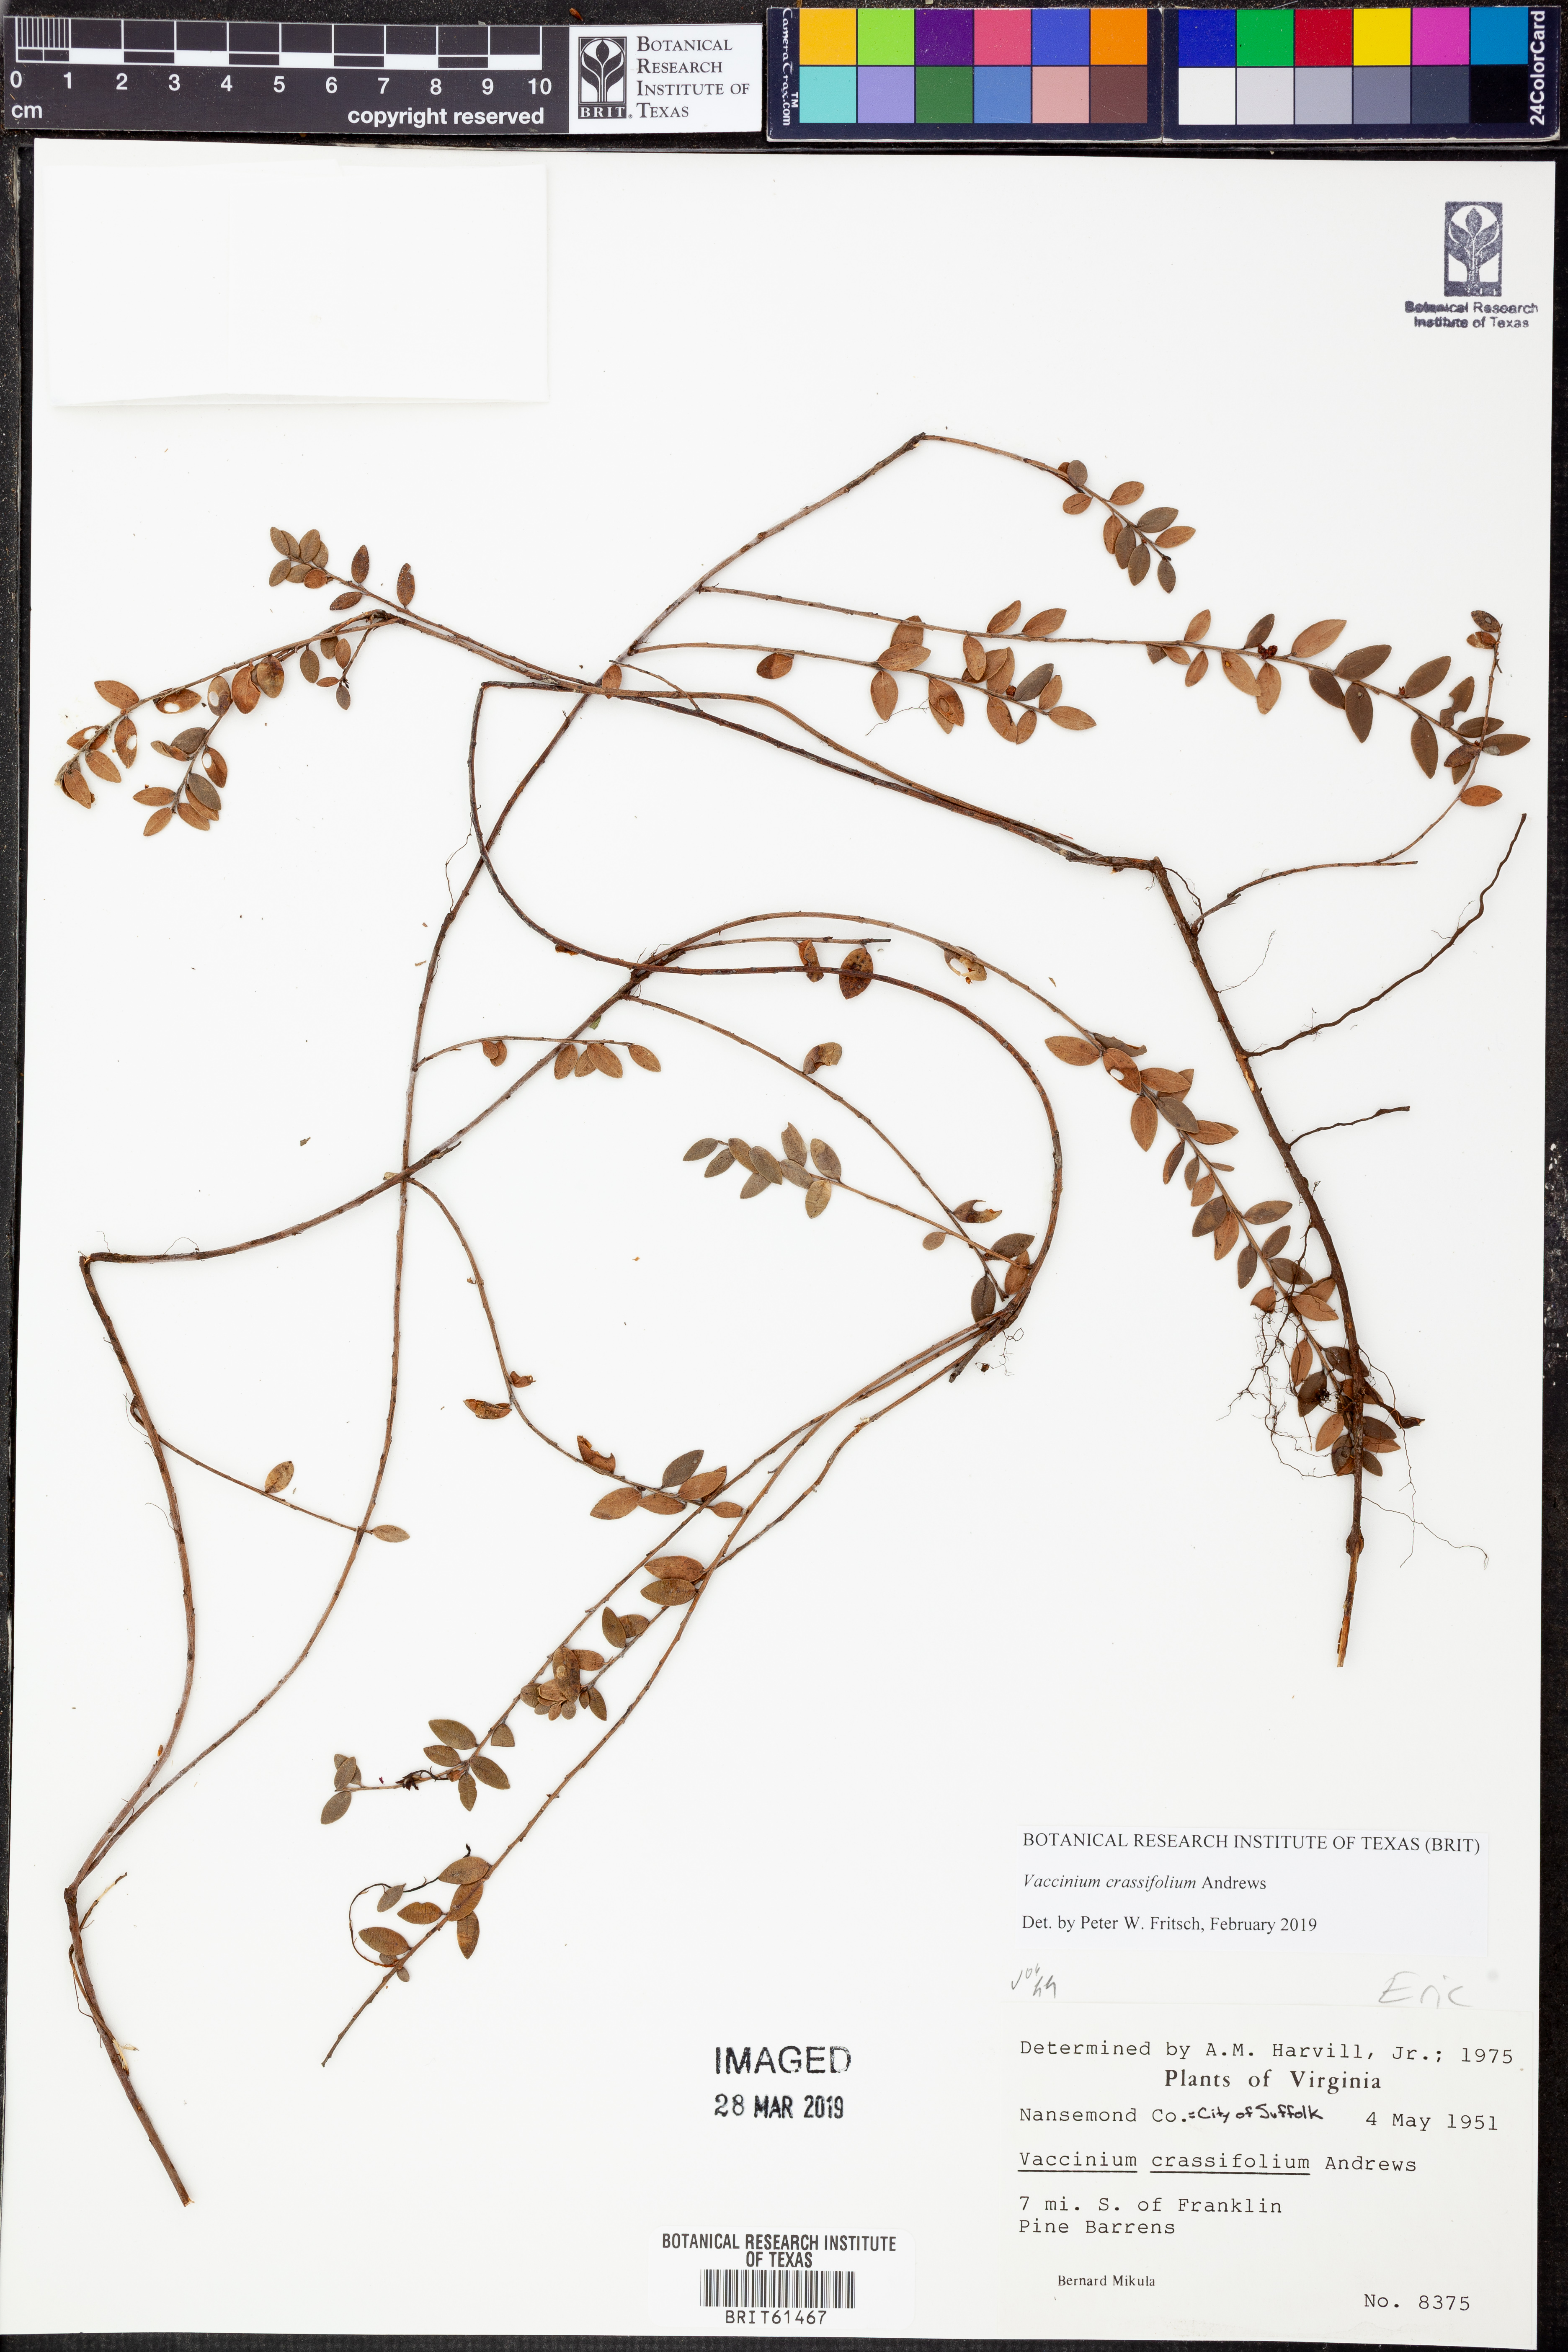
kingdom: Plantae
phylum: Tracheophyta
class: Magnoliopsida
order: Ericales
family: Ericaceae
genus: Vaccinium
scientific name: Vaccinium crassifolium
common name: Creeping blueberry
